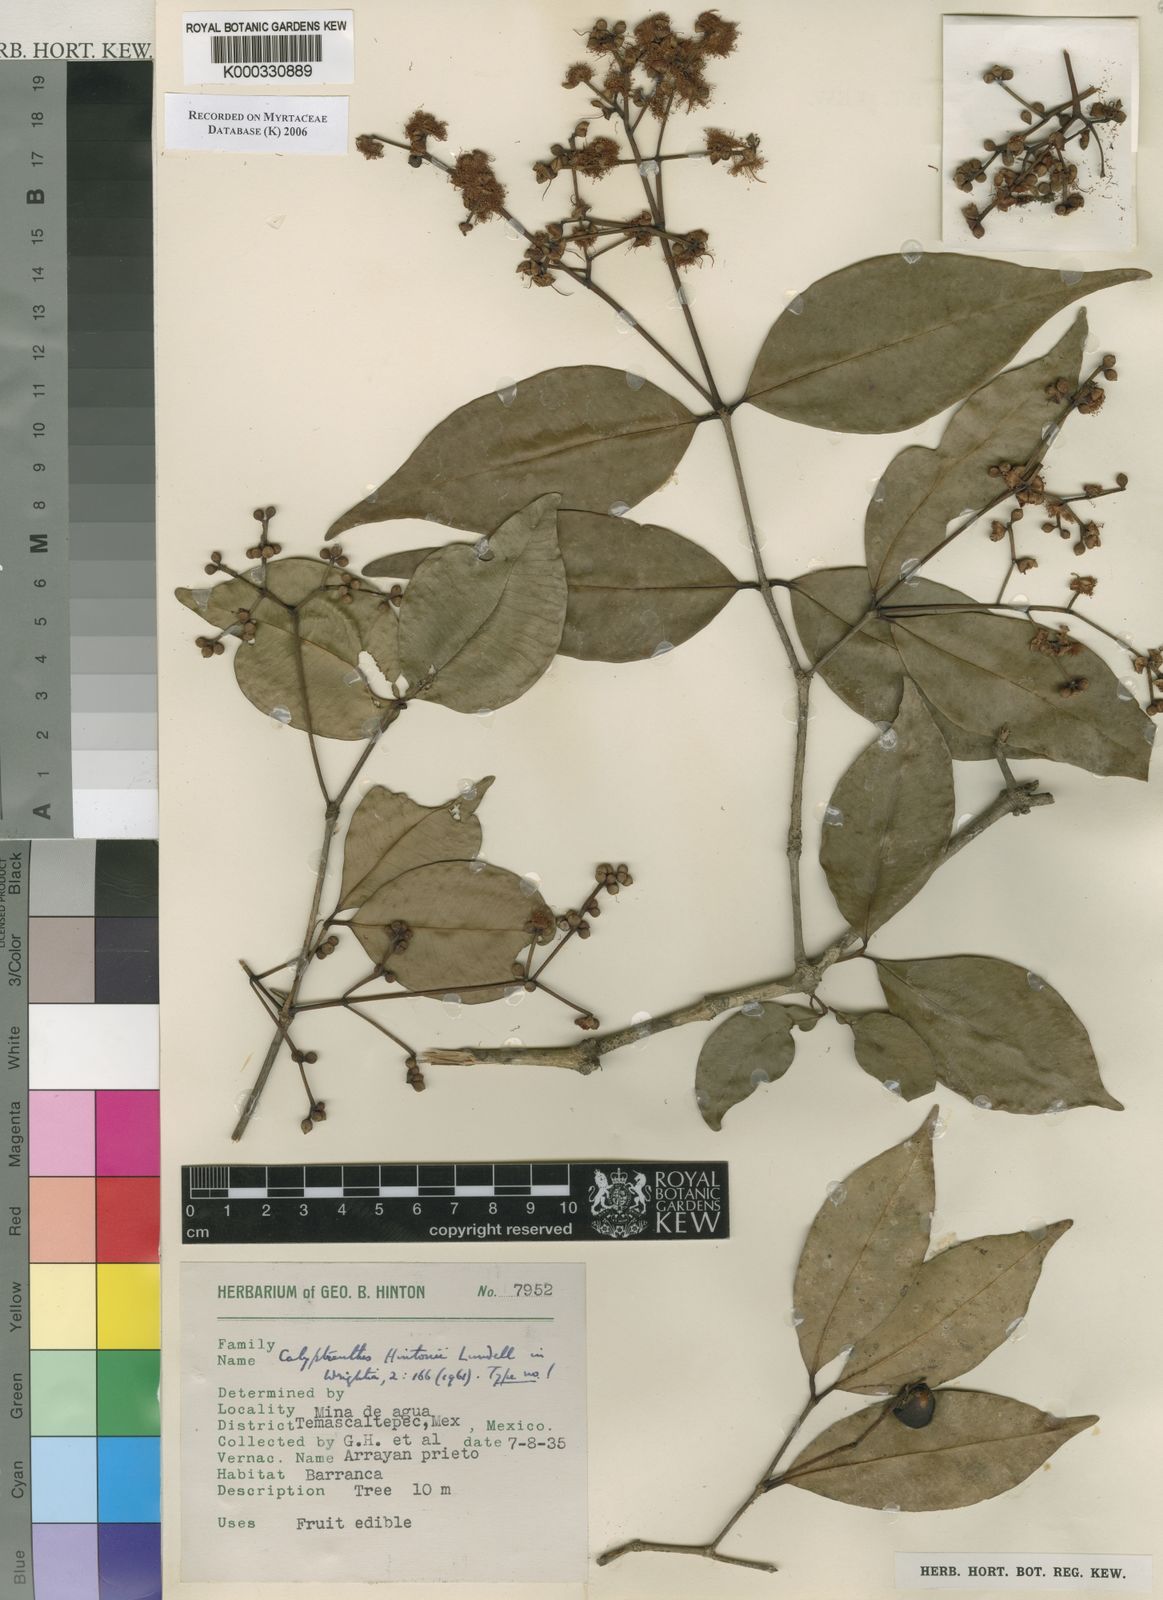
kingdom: Plantae
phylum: Tracheophyta
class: Magnoliopsida
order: Myrtales
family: Myrtaceae
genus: Myrcia
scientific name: Myrcia hintonii
